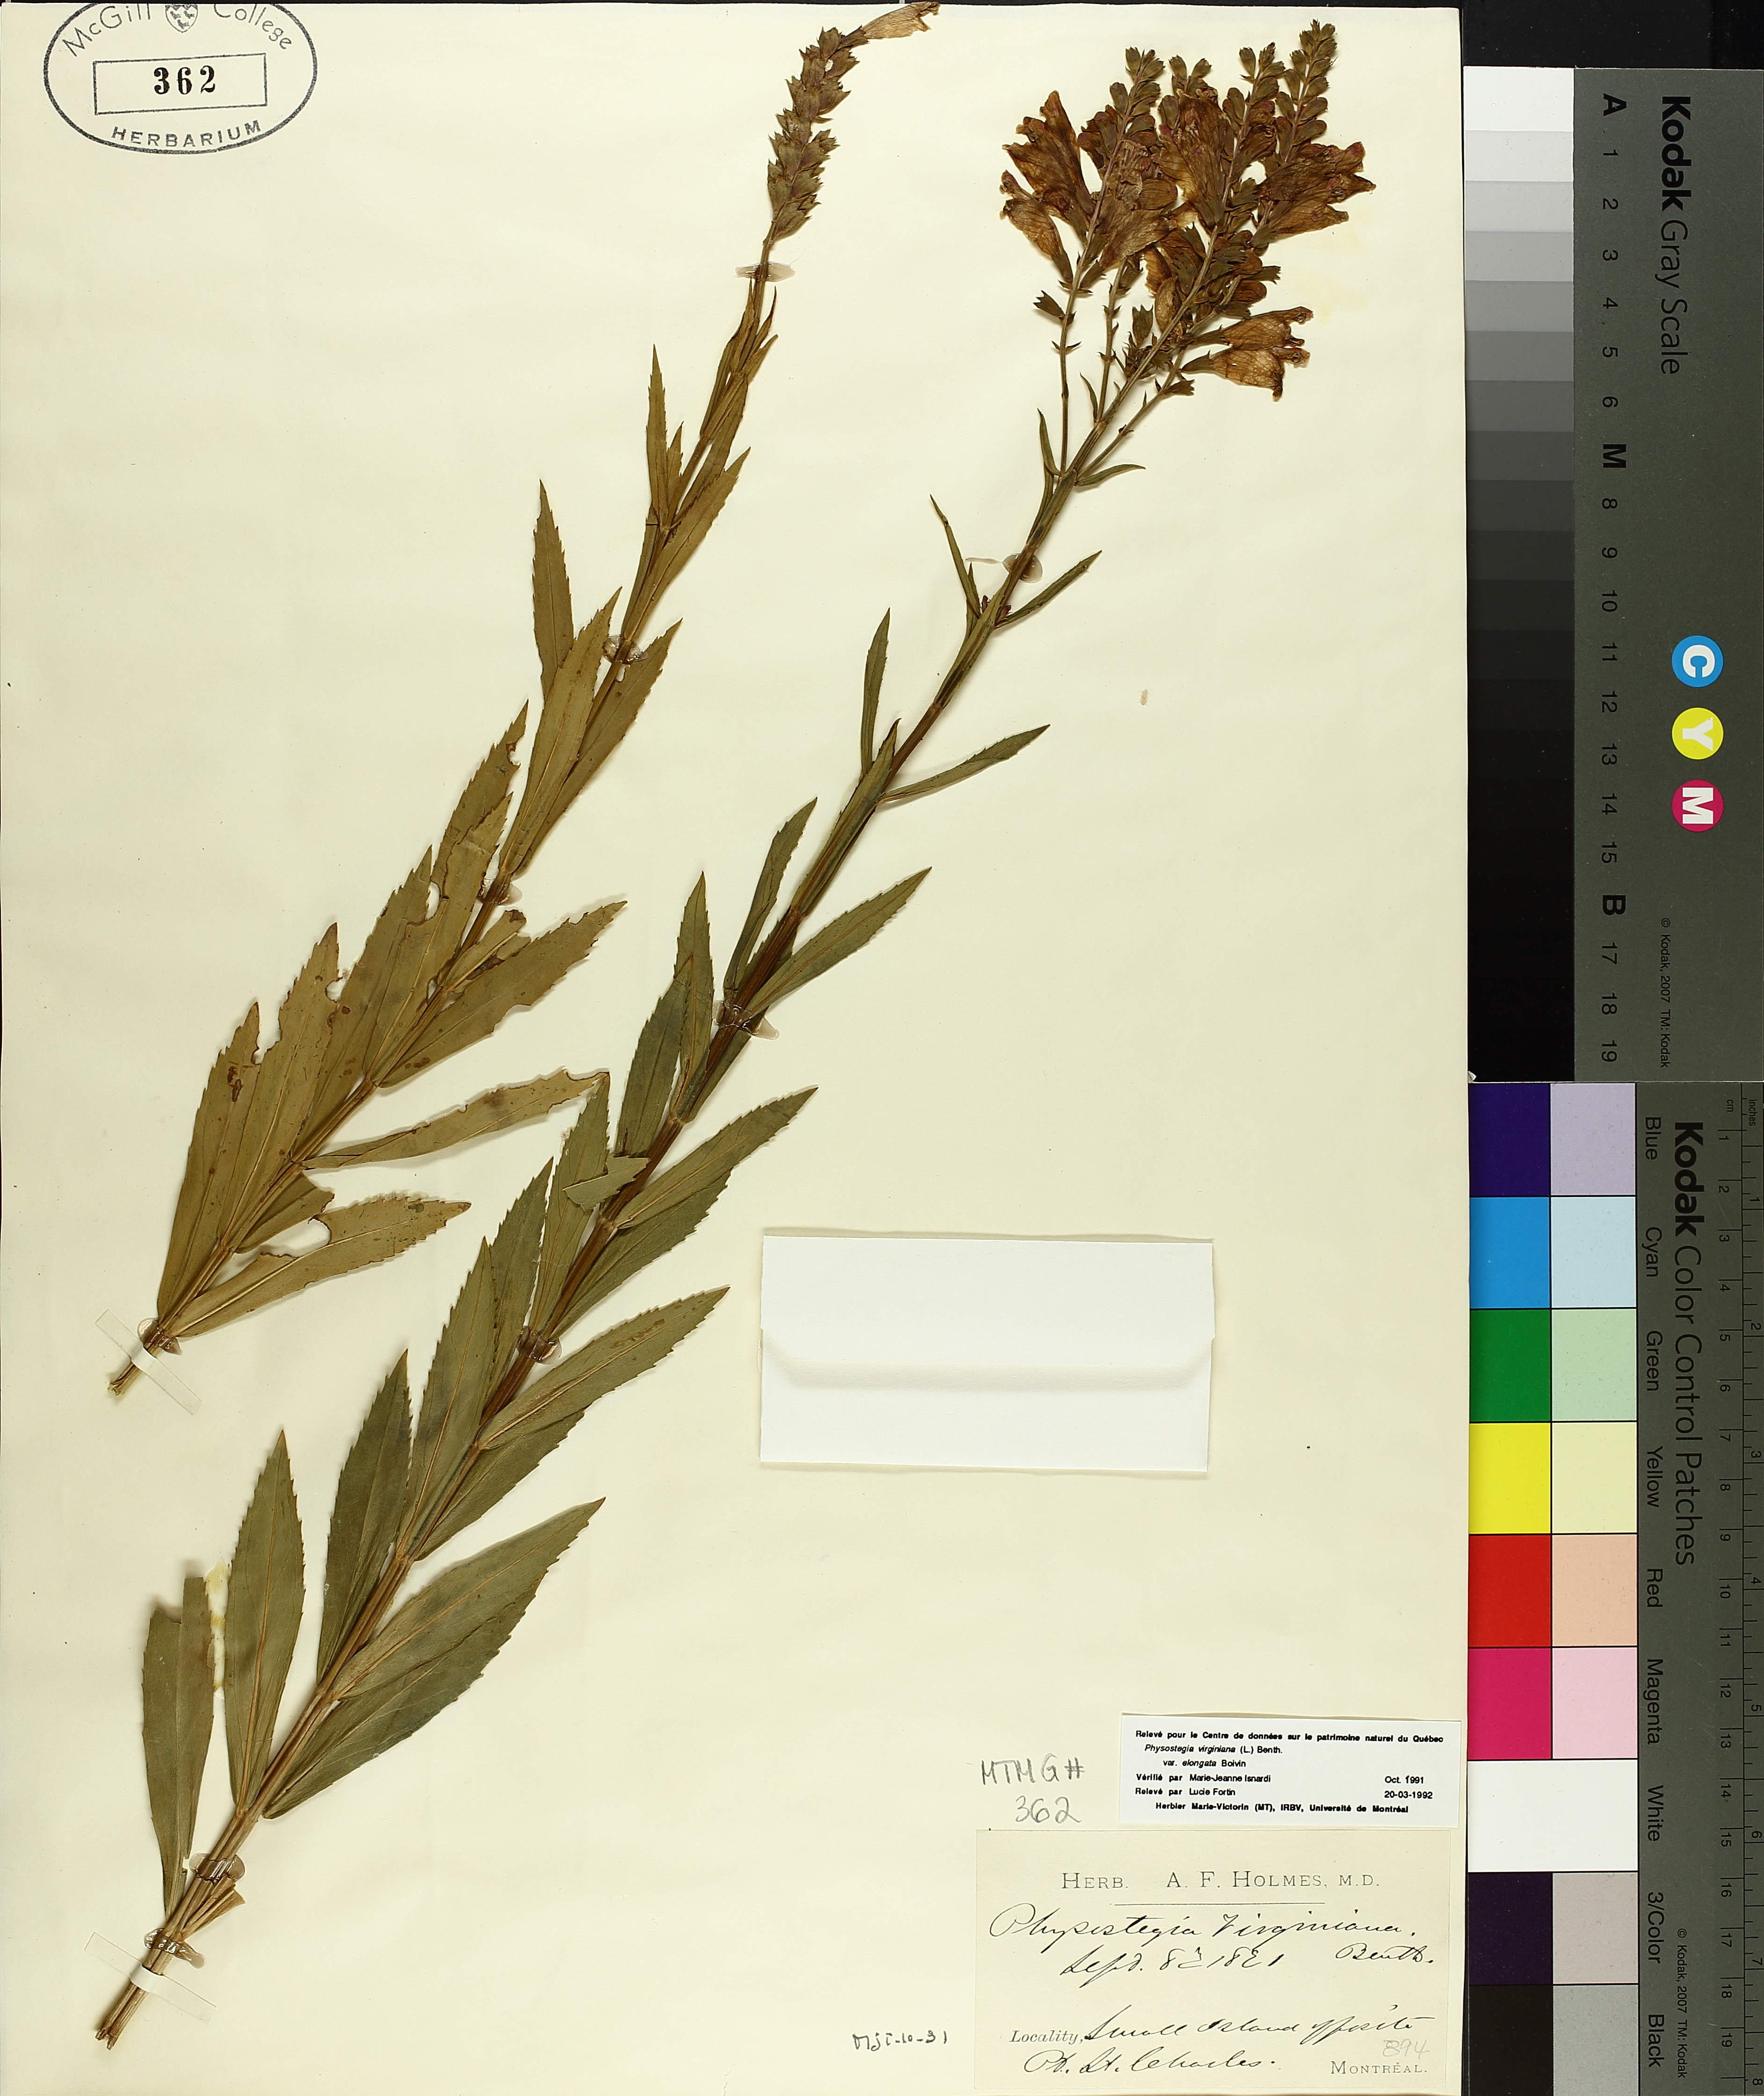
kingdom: Plantae
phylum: Tracheophyta
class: Magnoliopsida
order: Lamiales
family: Lamiaceae
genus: Physostegia
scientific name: Physostegia virginiana
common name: Obedient-plant
